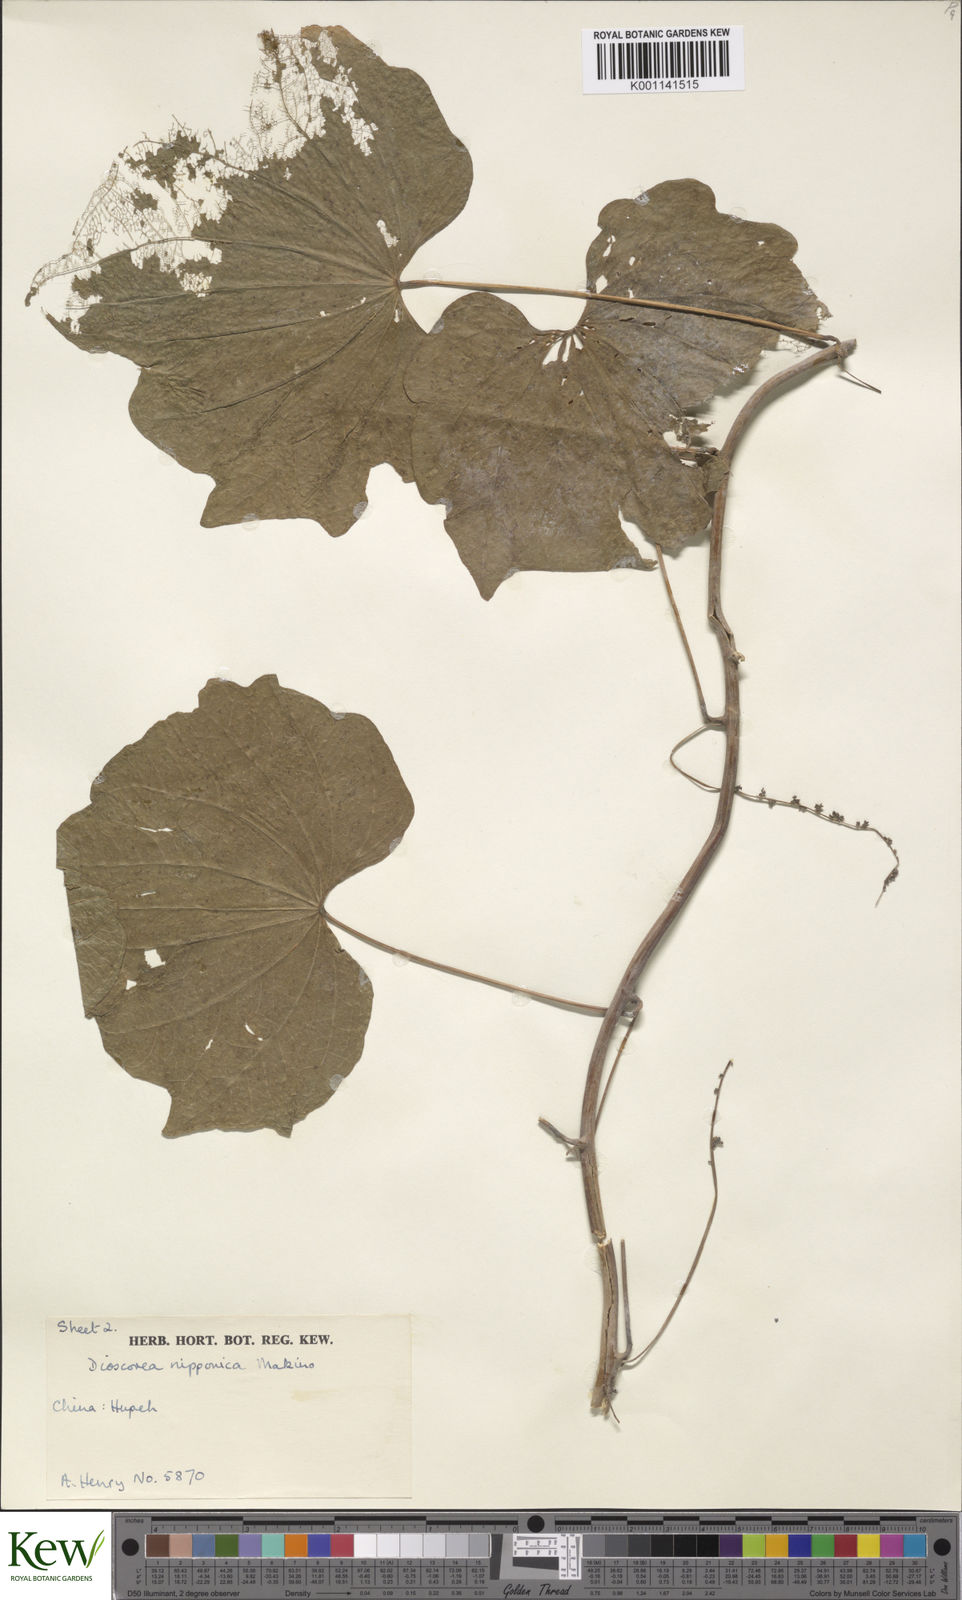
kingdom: Plantae
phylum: Tracheophyta
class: Liliopsida
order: Dioscoreales
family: Dioscoreaceae
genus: Dioscorea
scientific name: Dioscorea nipponica
